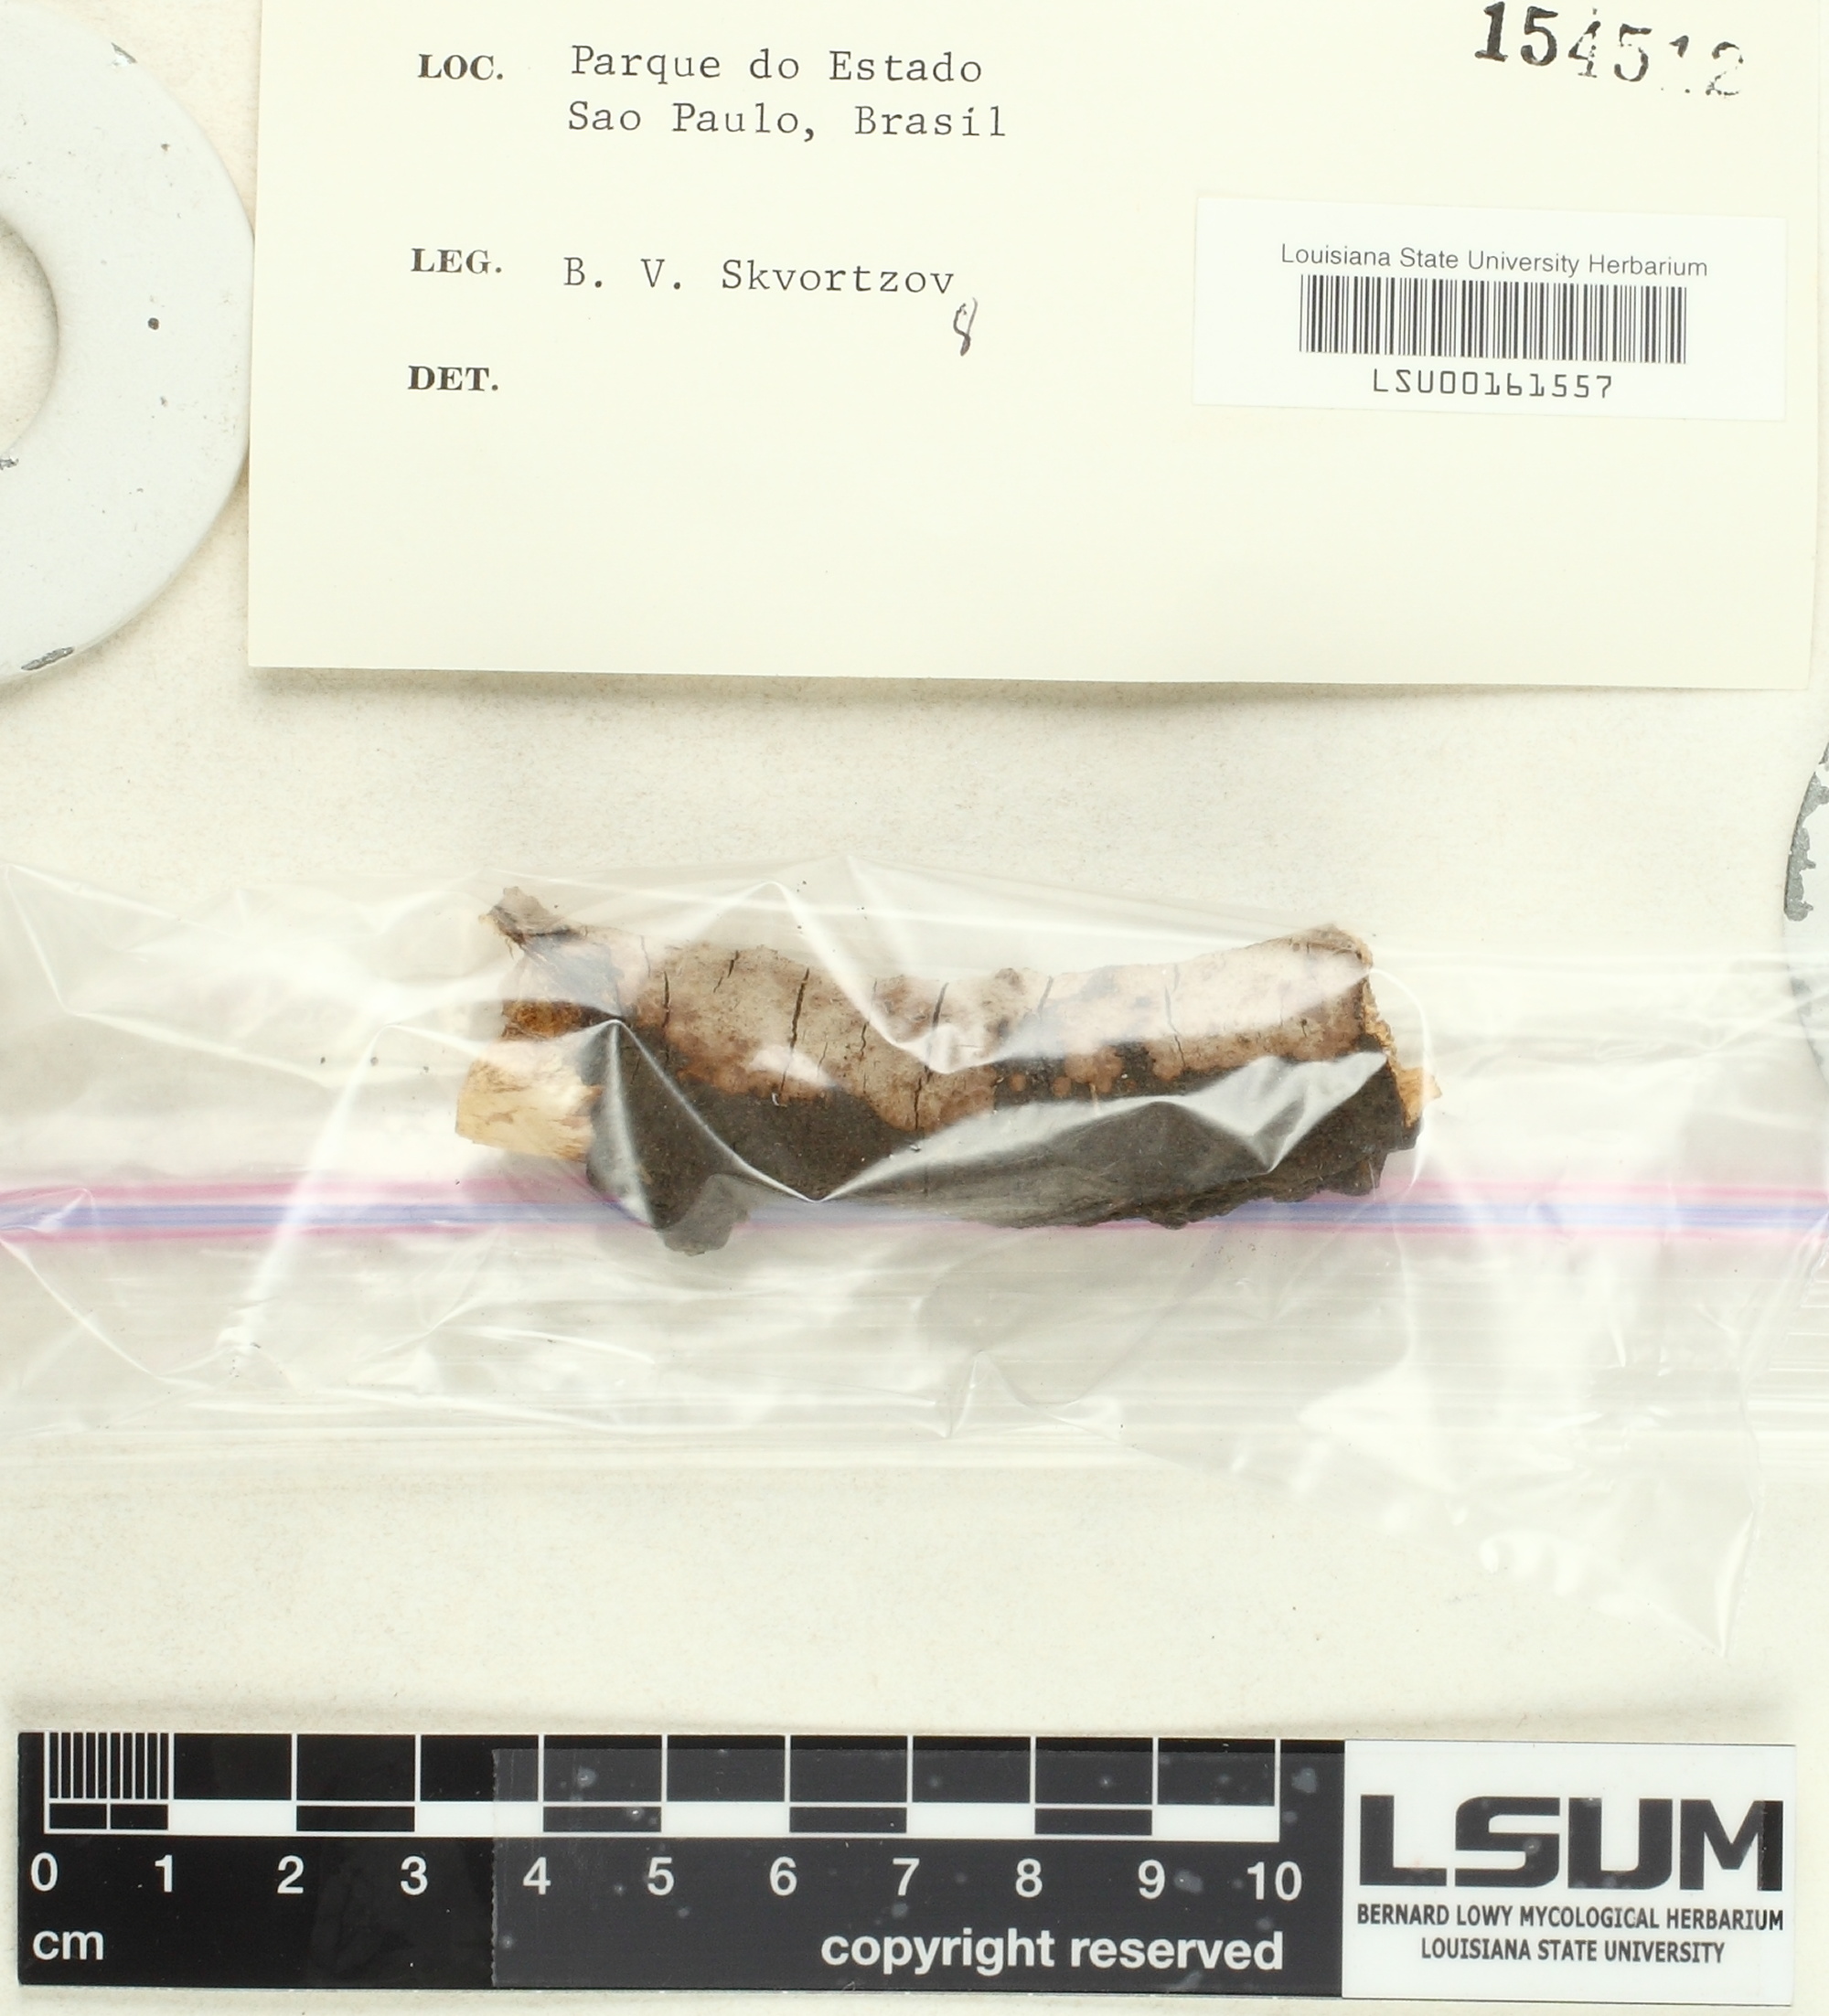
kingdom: Fungi
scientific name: Fungi
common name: Fungi
